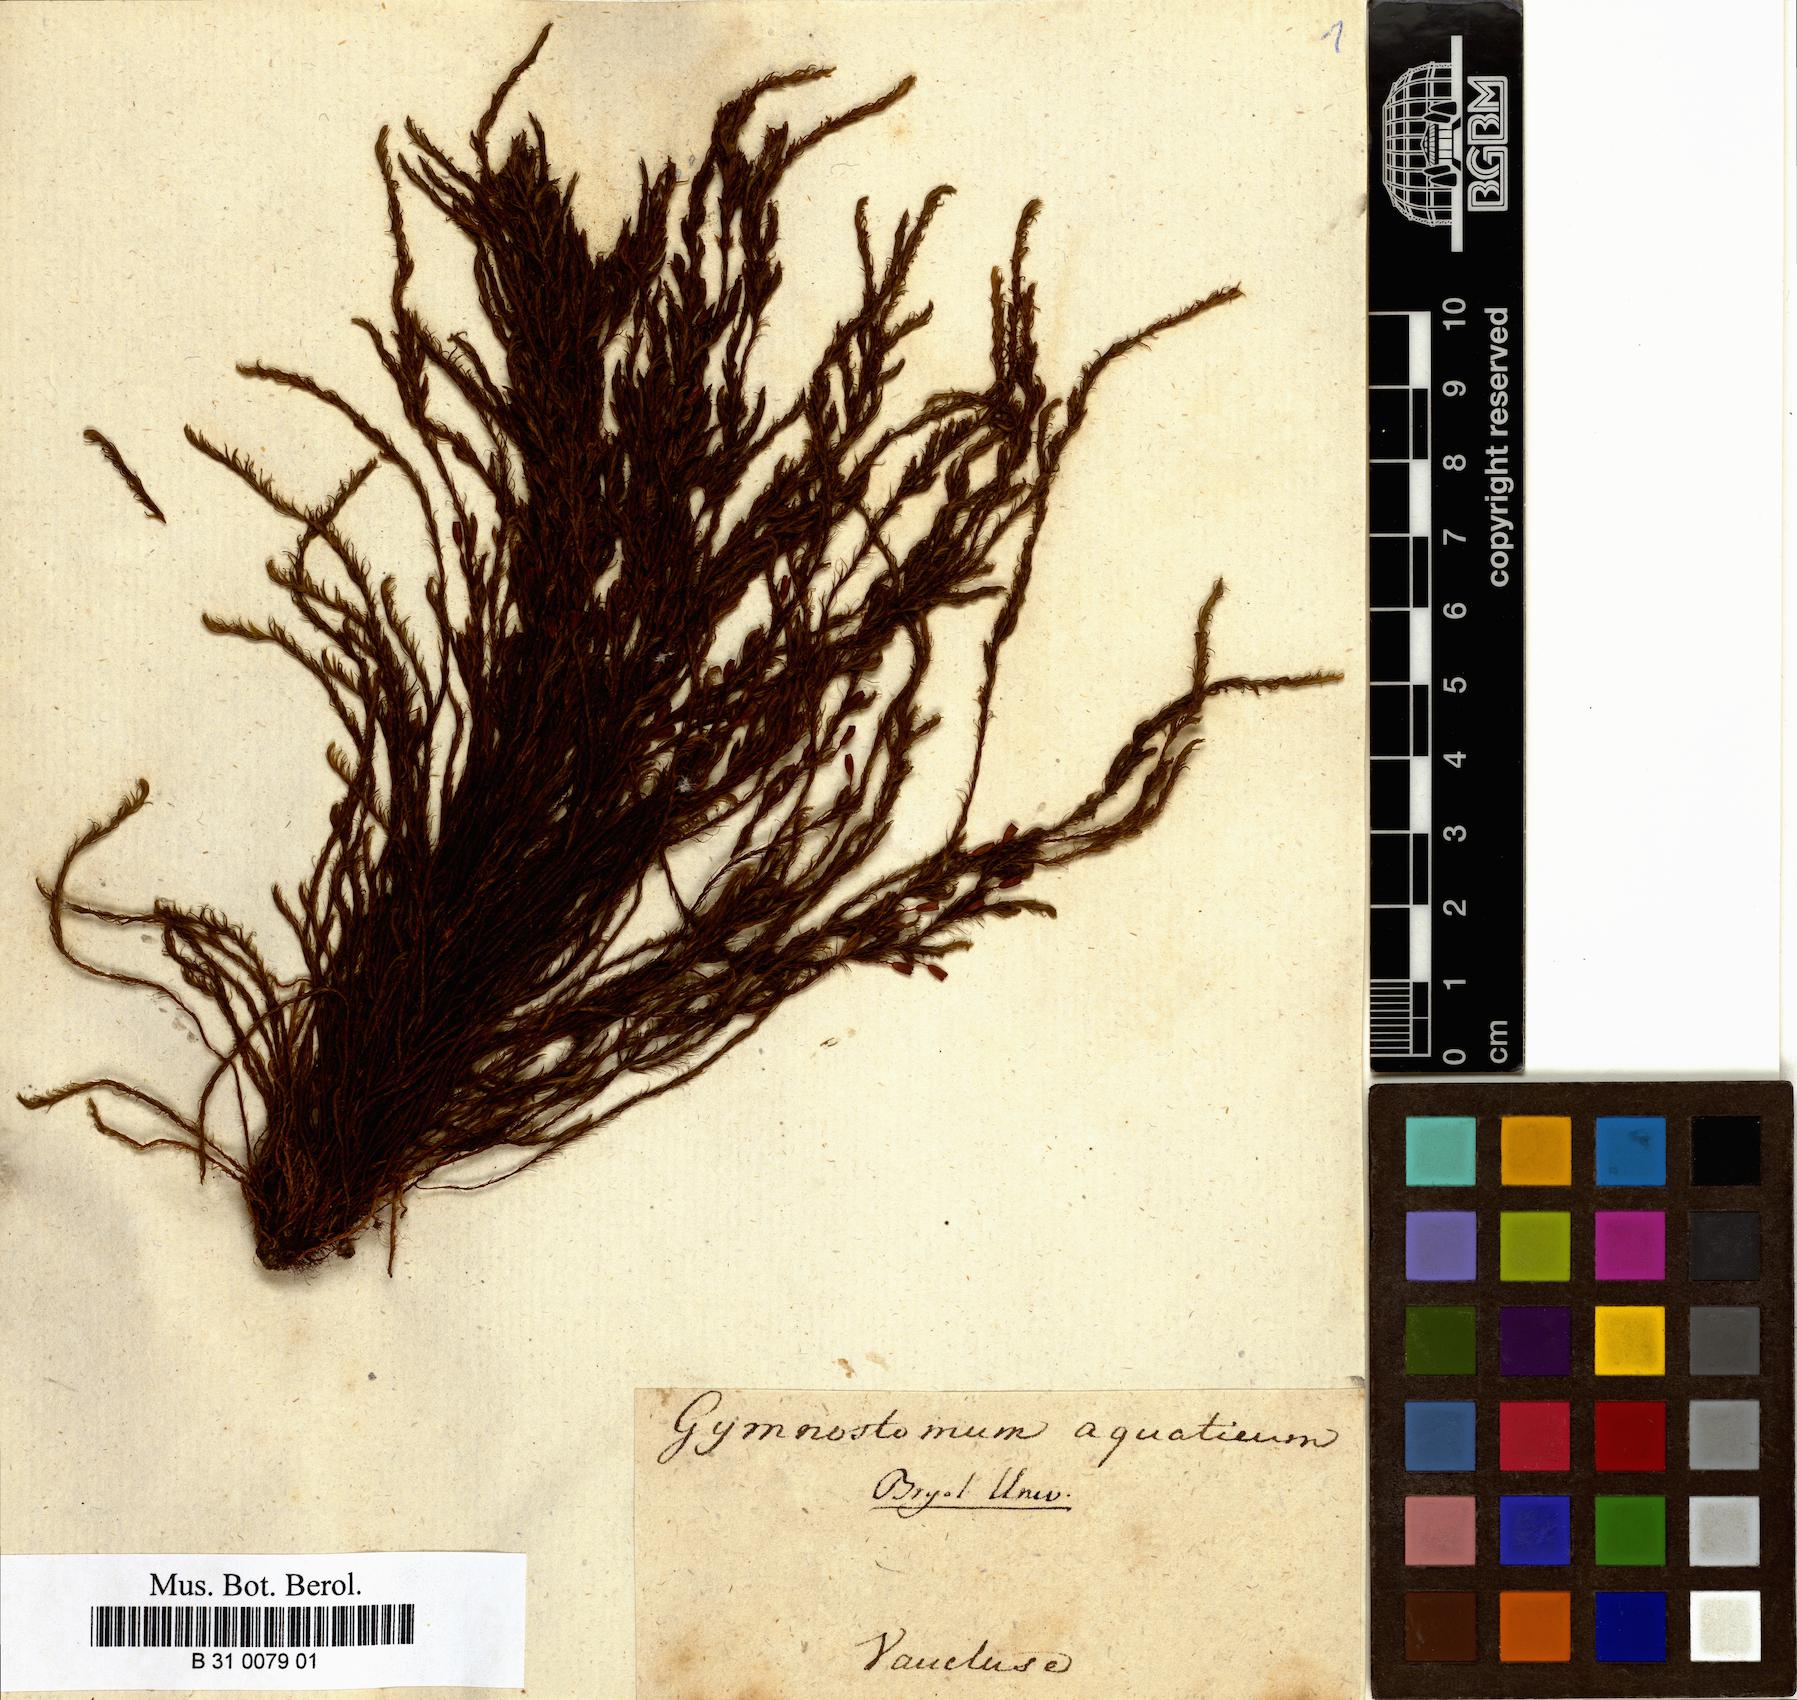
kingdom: Plantae
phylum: Bryophyta
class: Bryopsida
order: Pottiales
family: Pottiaceae
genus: Cinclidotus
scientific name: Cinclidotus aquaticus
